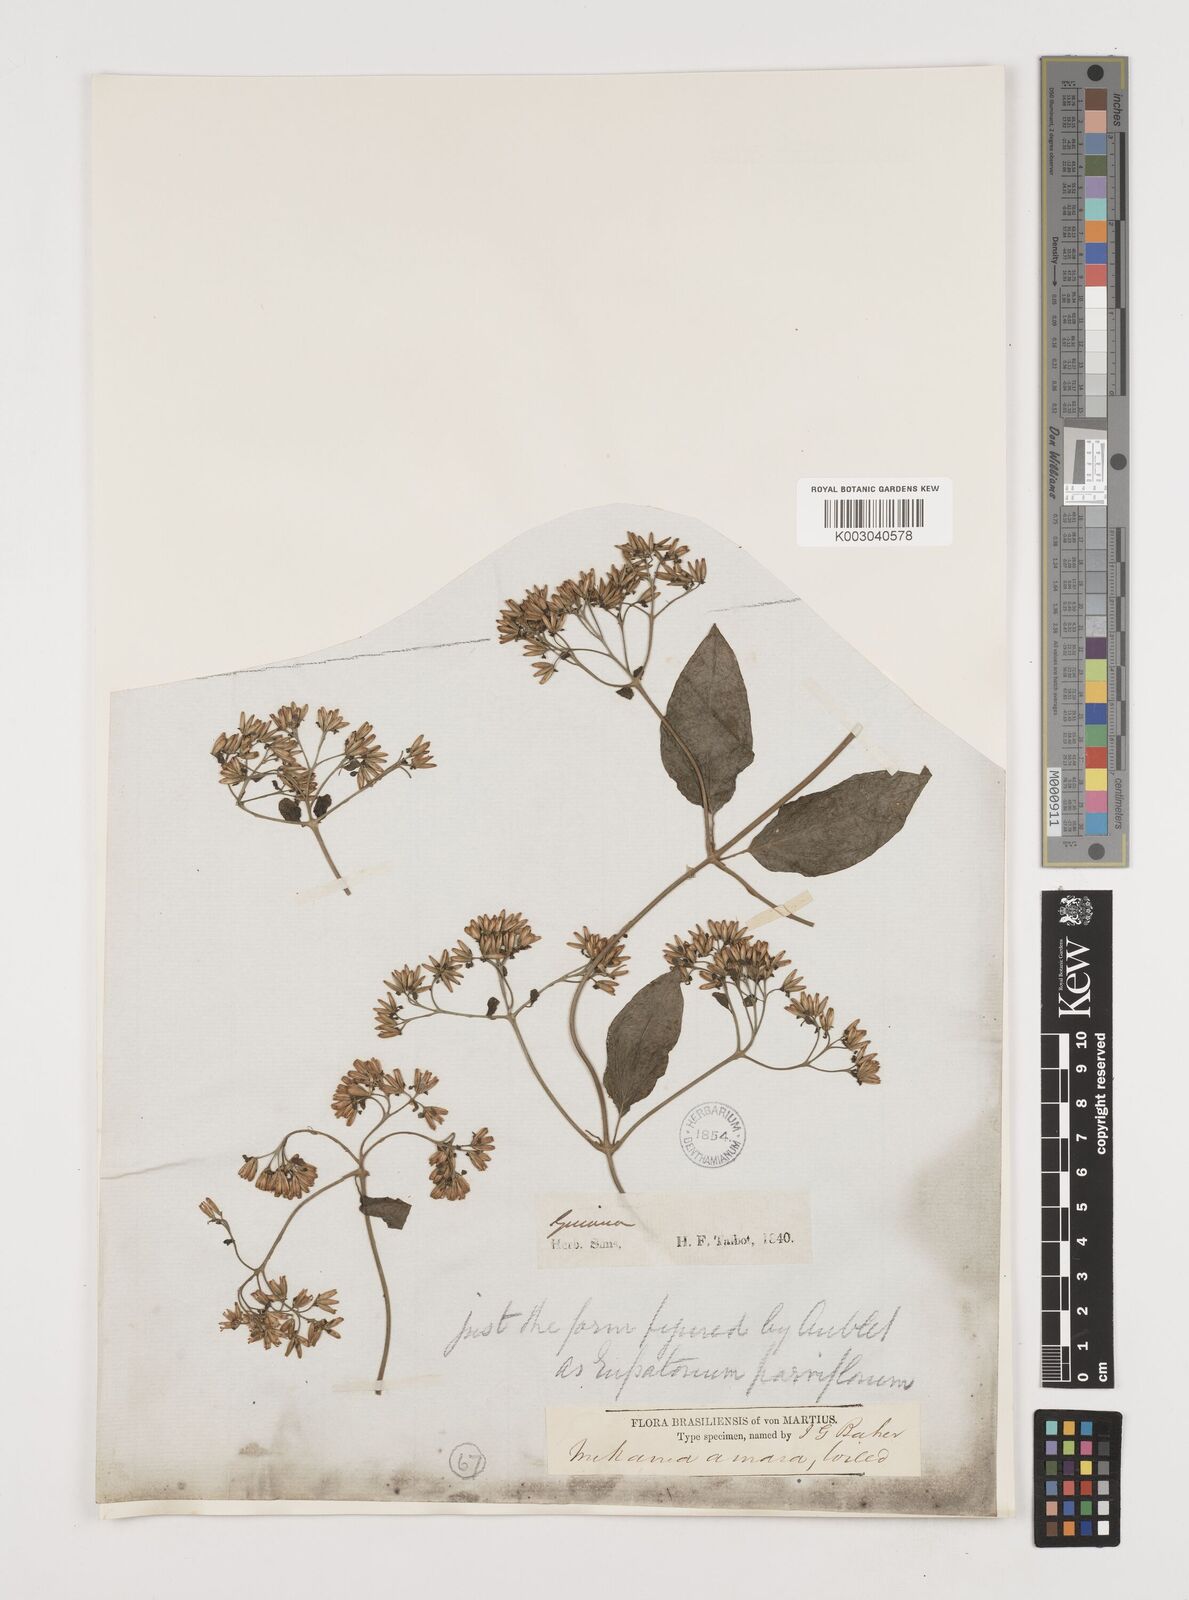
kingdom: Plantae
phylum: Tracheophyta
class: Magnoliopsida
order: Asterales
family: Asteraceae
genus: Mikania
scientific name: Mikania
